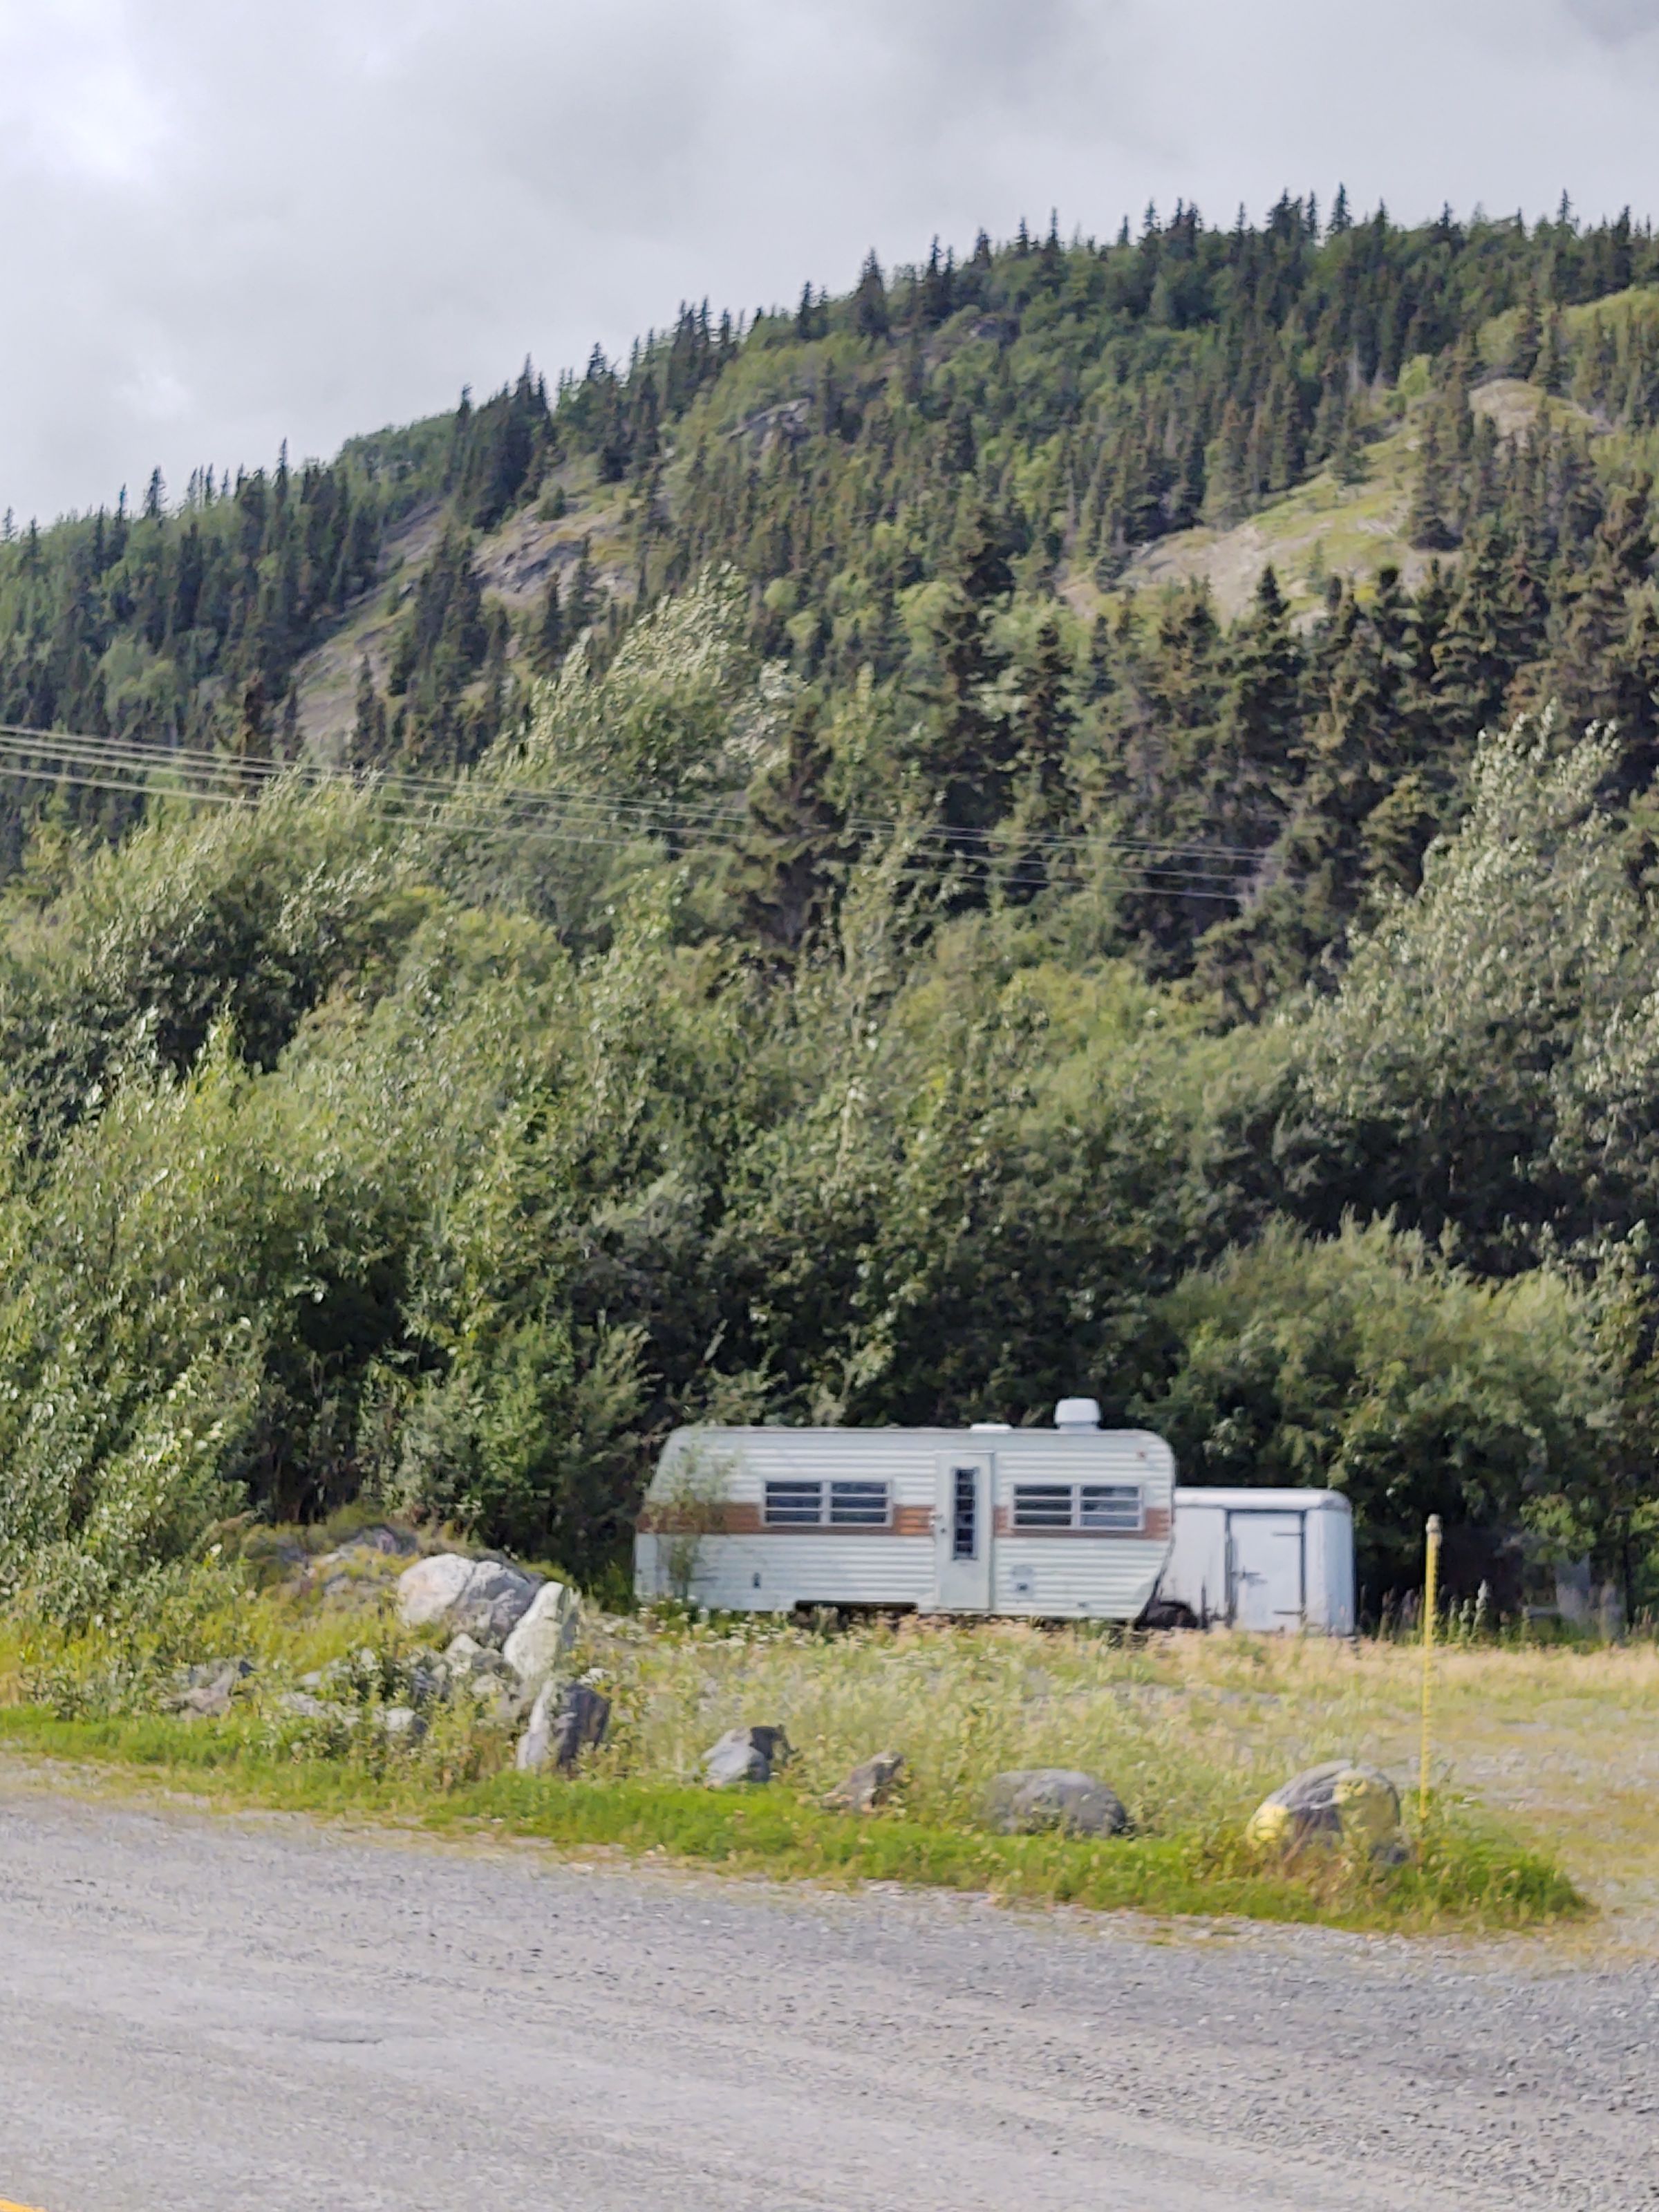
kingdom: Plantae
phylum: Tracheophyta
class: Magnoliopsida
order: Fabales
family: Fabaceae
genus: Melilotus
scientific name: Melilotus albus
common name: White sweetclover
